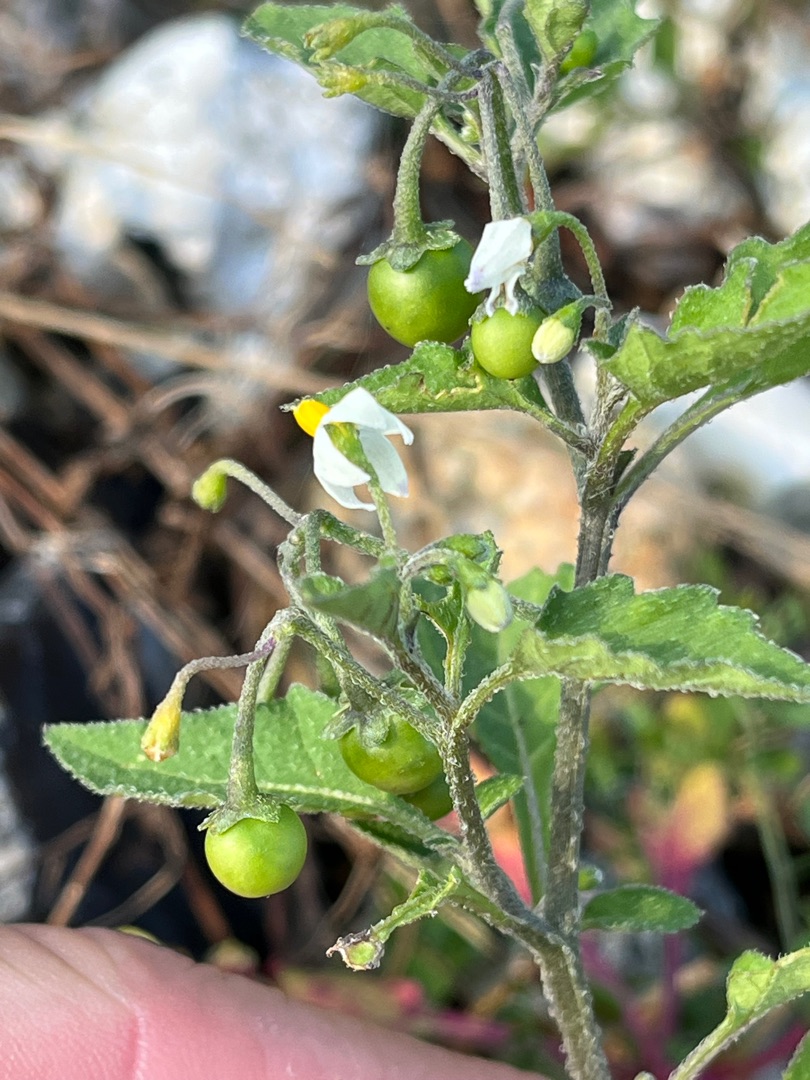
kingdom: Plantae
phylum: Tracheophyta
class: Magnoliopsida
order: Solanales
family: Solanaceae
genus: Solanum
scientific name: Solanum nigrum
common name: Sort natskygge
